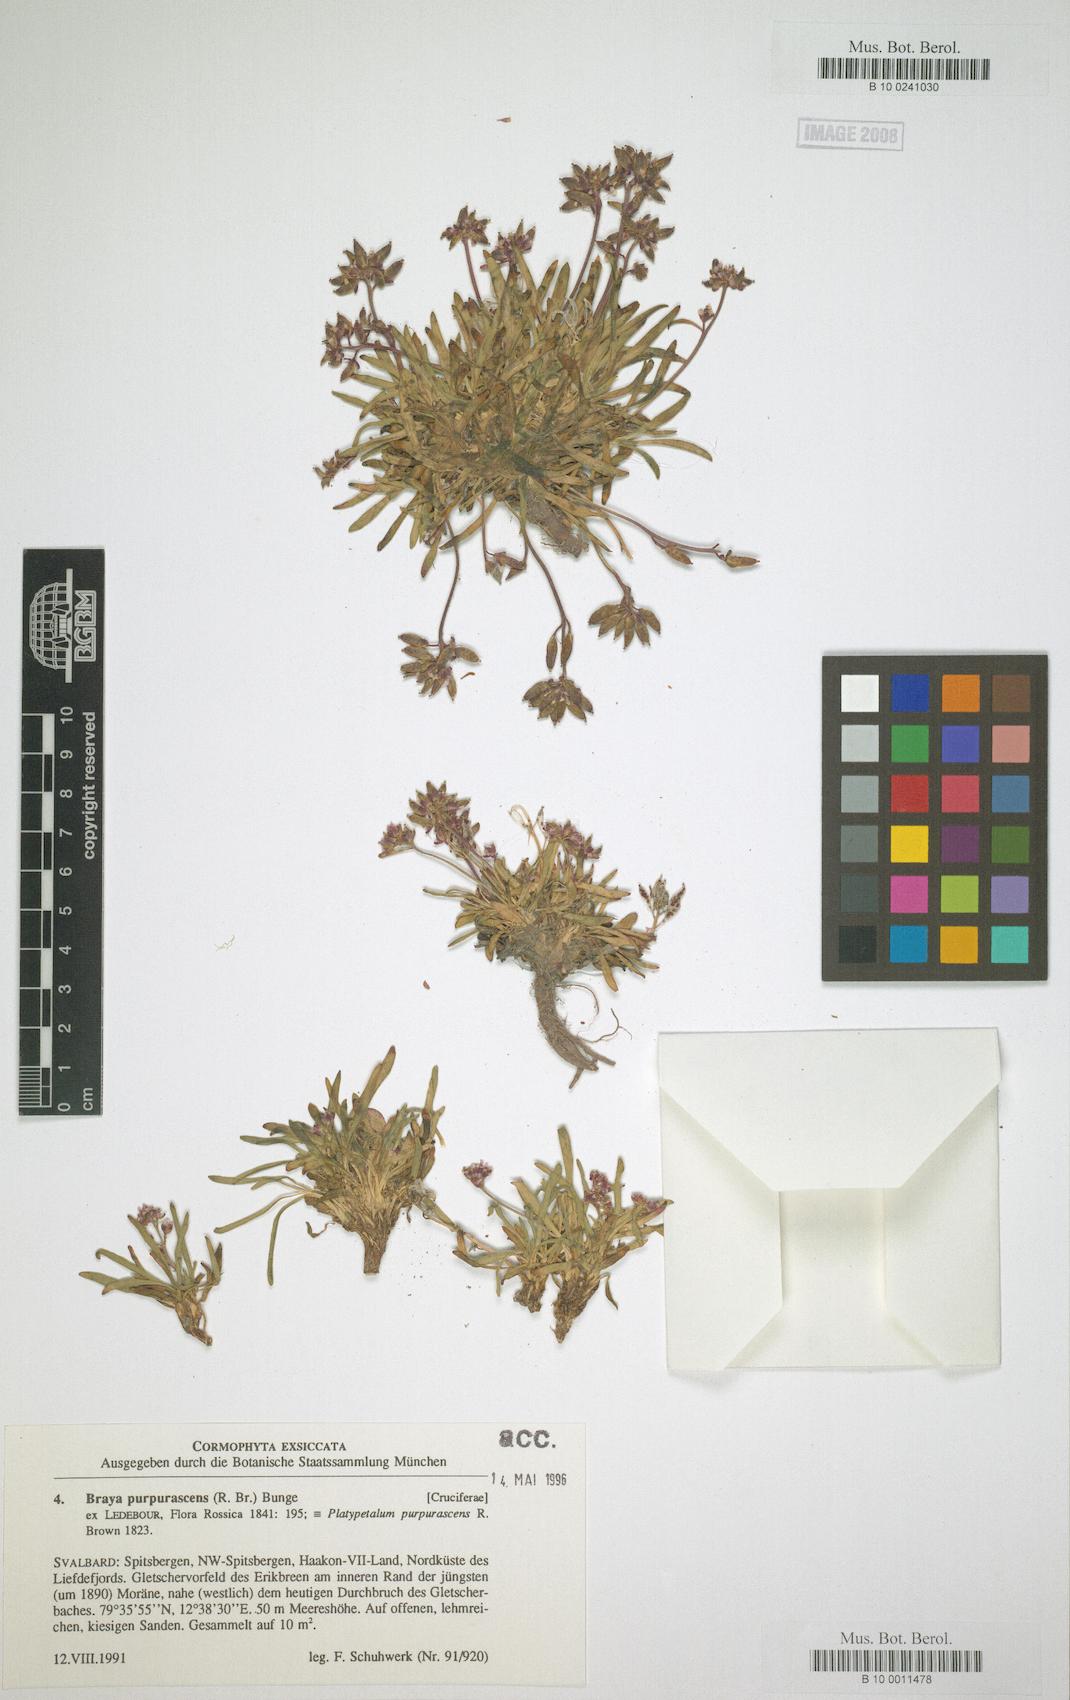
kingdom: Plantae
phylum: Tracheophyta
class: Magnoliopsida
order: Brassicales
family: Brassicaceae
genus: Braya
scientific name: Braya purpurascens
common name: Alpine braya
